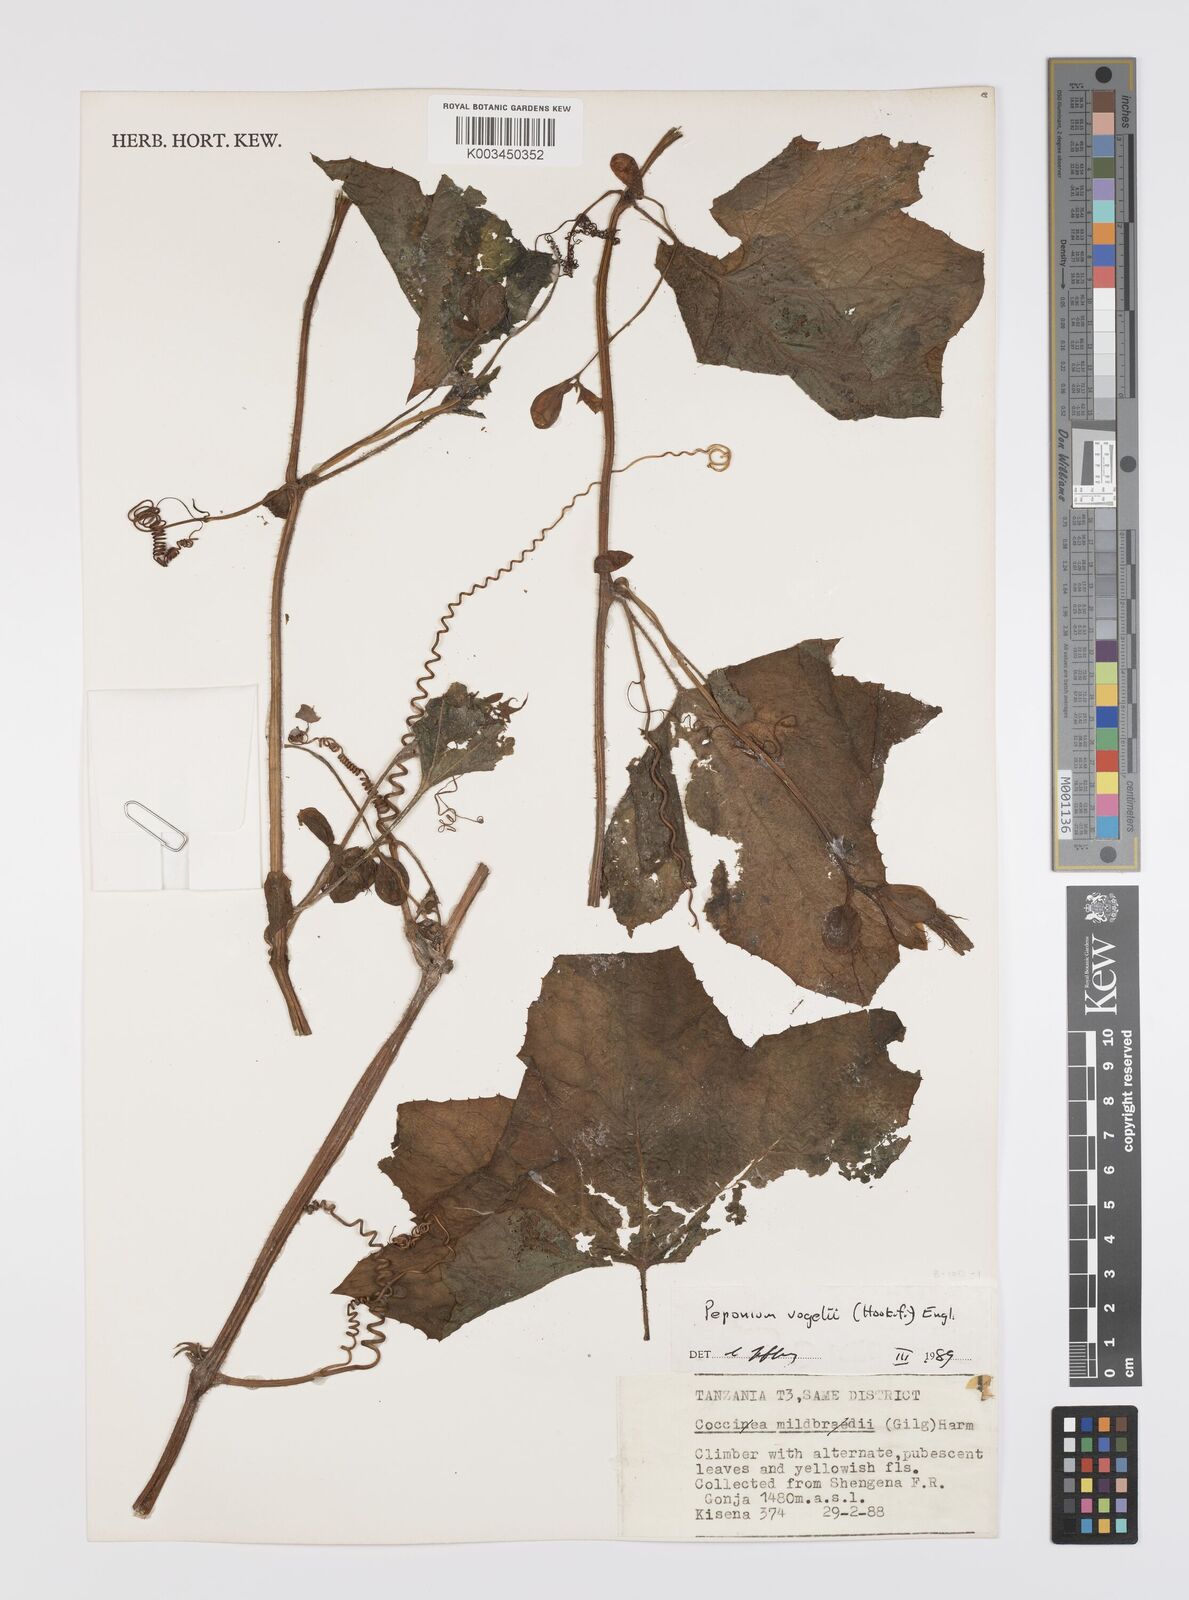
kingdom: Plantae
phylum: Tracheophyta
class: Magnoliopsida
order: Cucurbitales
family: Cucurbitaceae
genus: Peponium
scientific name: Peponium vogelii
